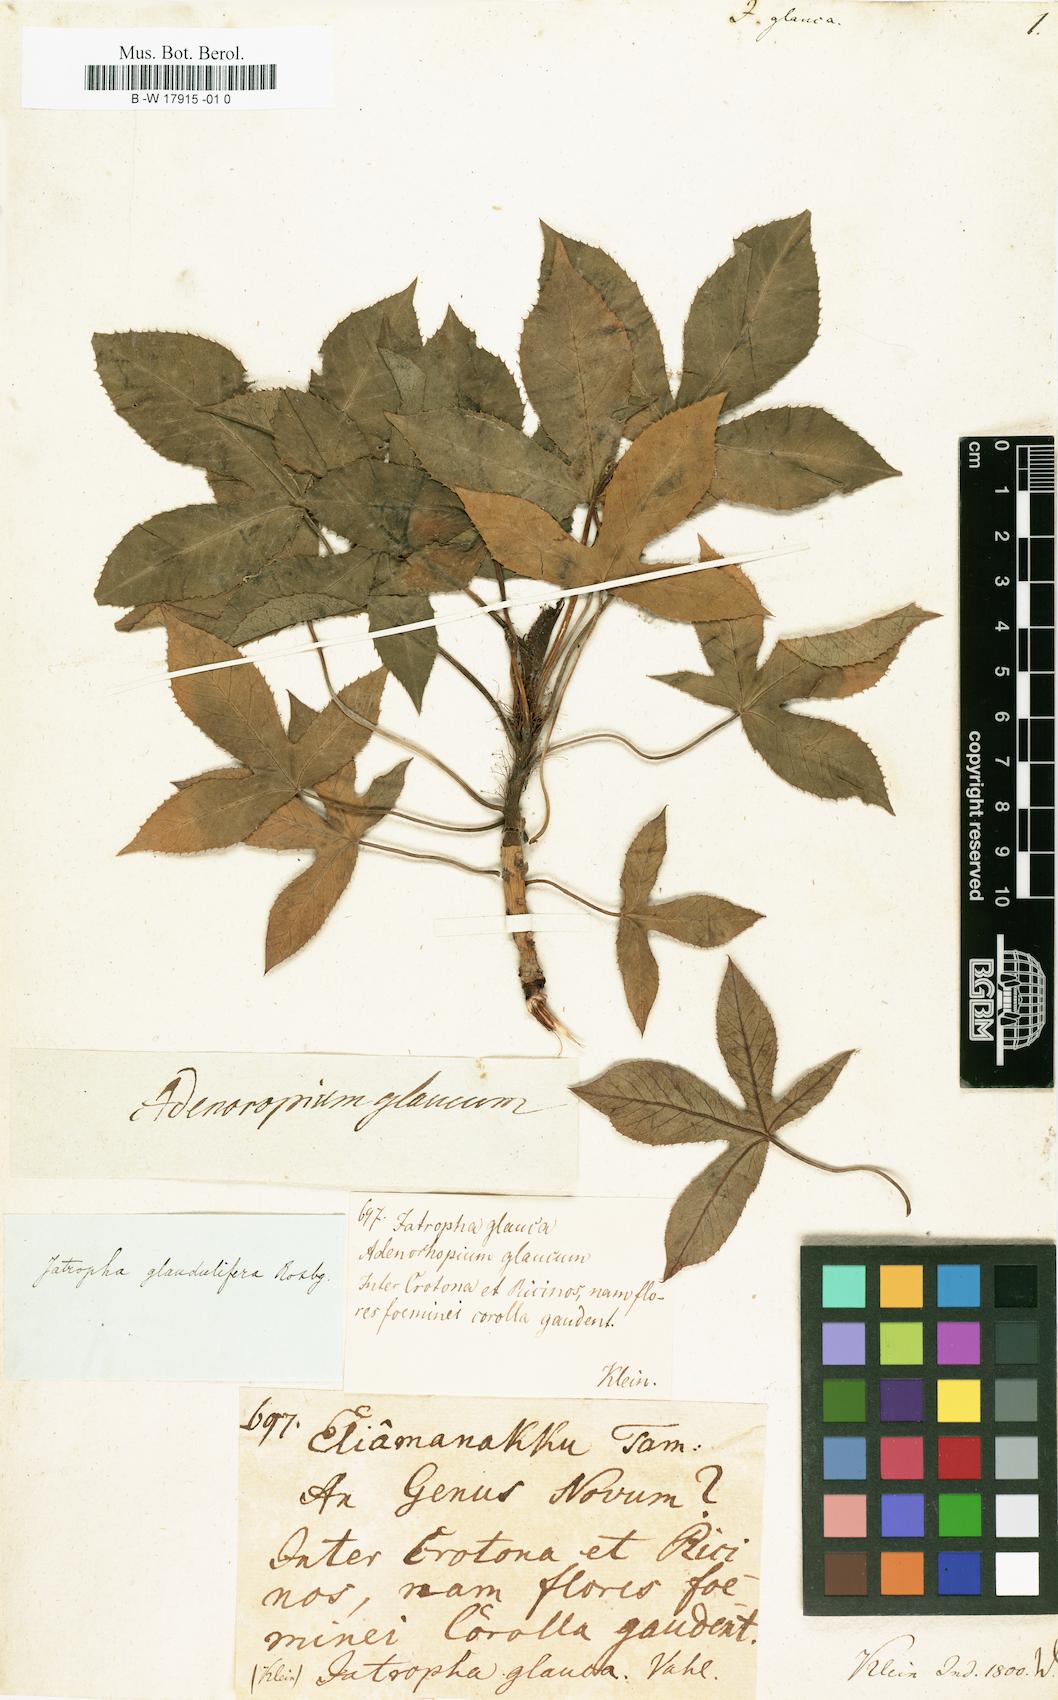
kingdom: Plantae
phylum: Tracheophyta
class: Magnoliopsida
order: Malpighiales
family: Euphorbiaceae
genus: Jatropha
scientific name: Jatropha glauca
